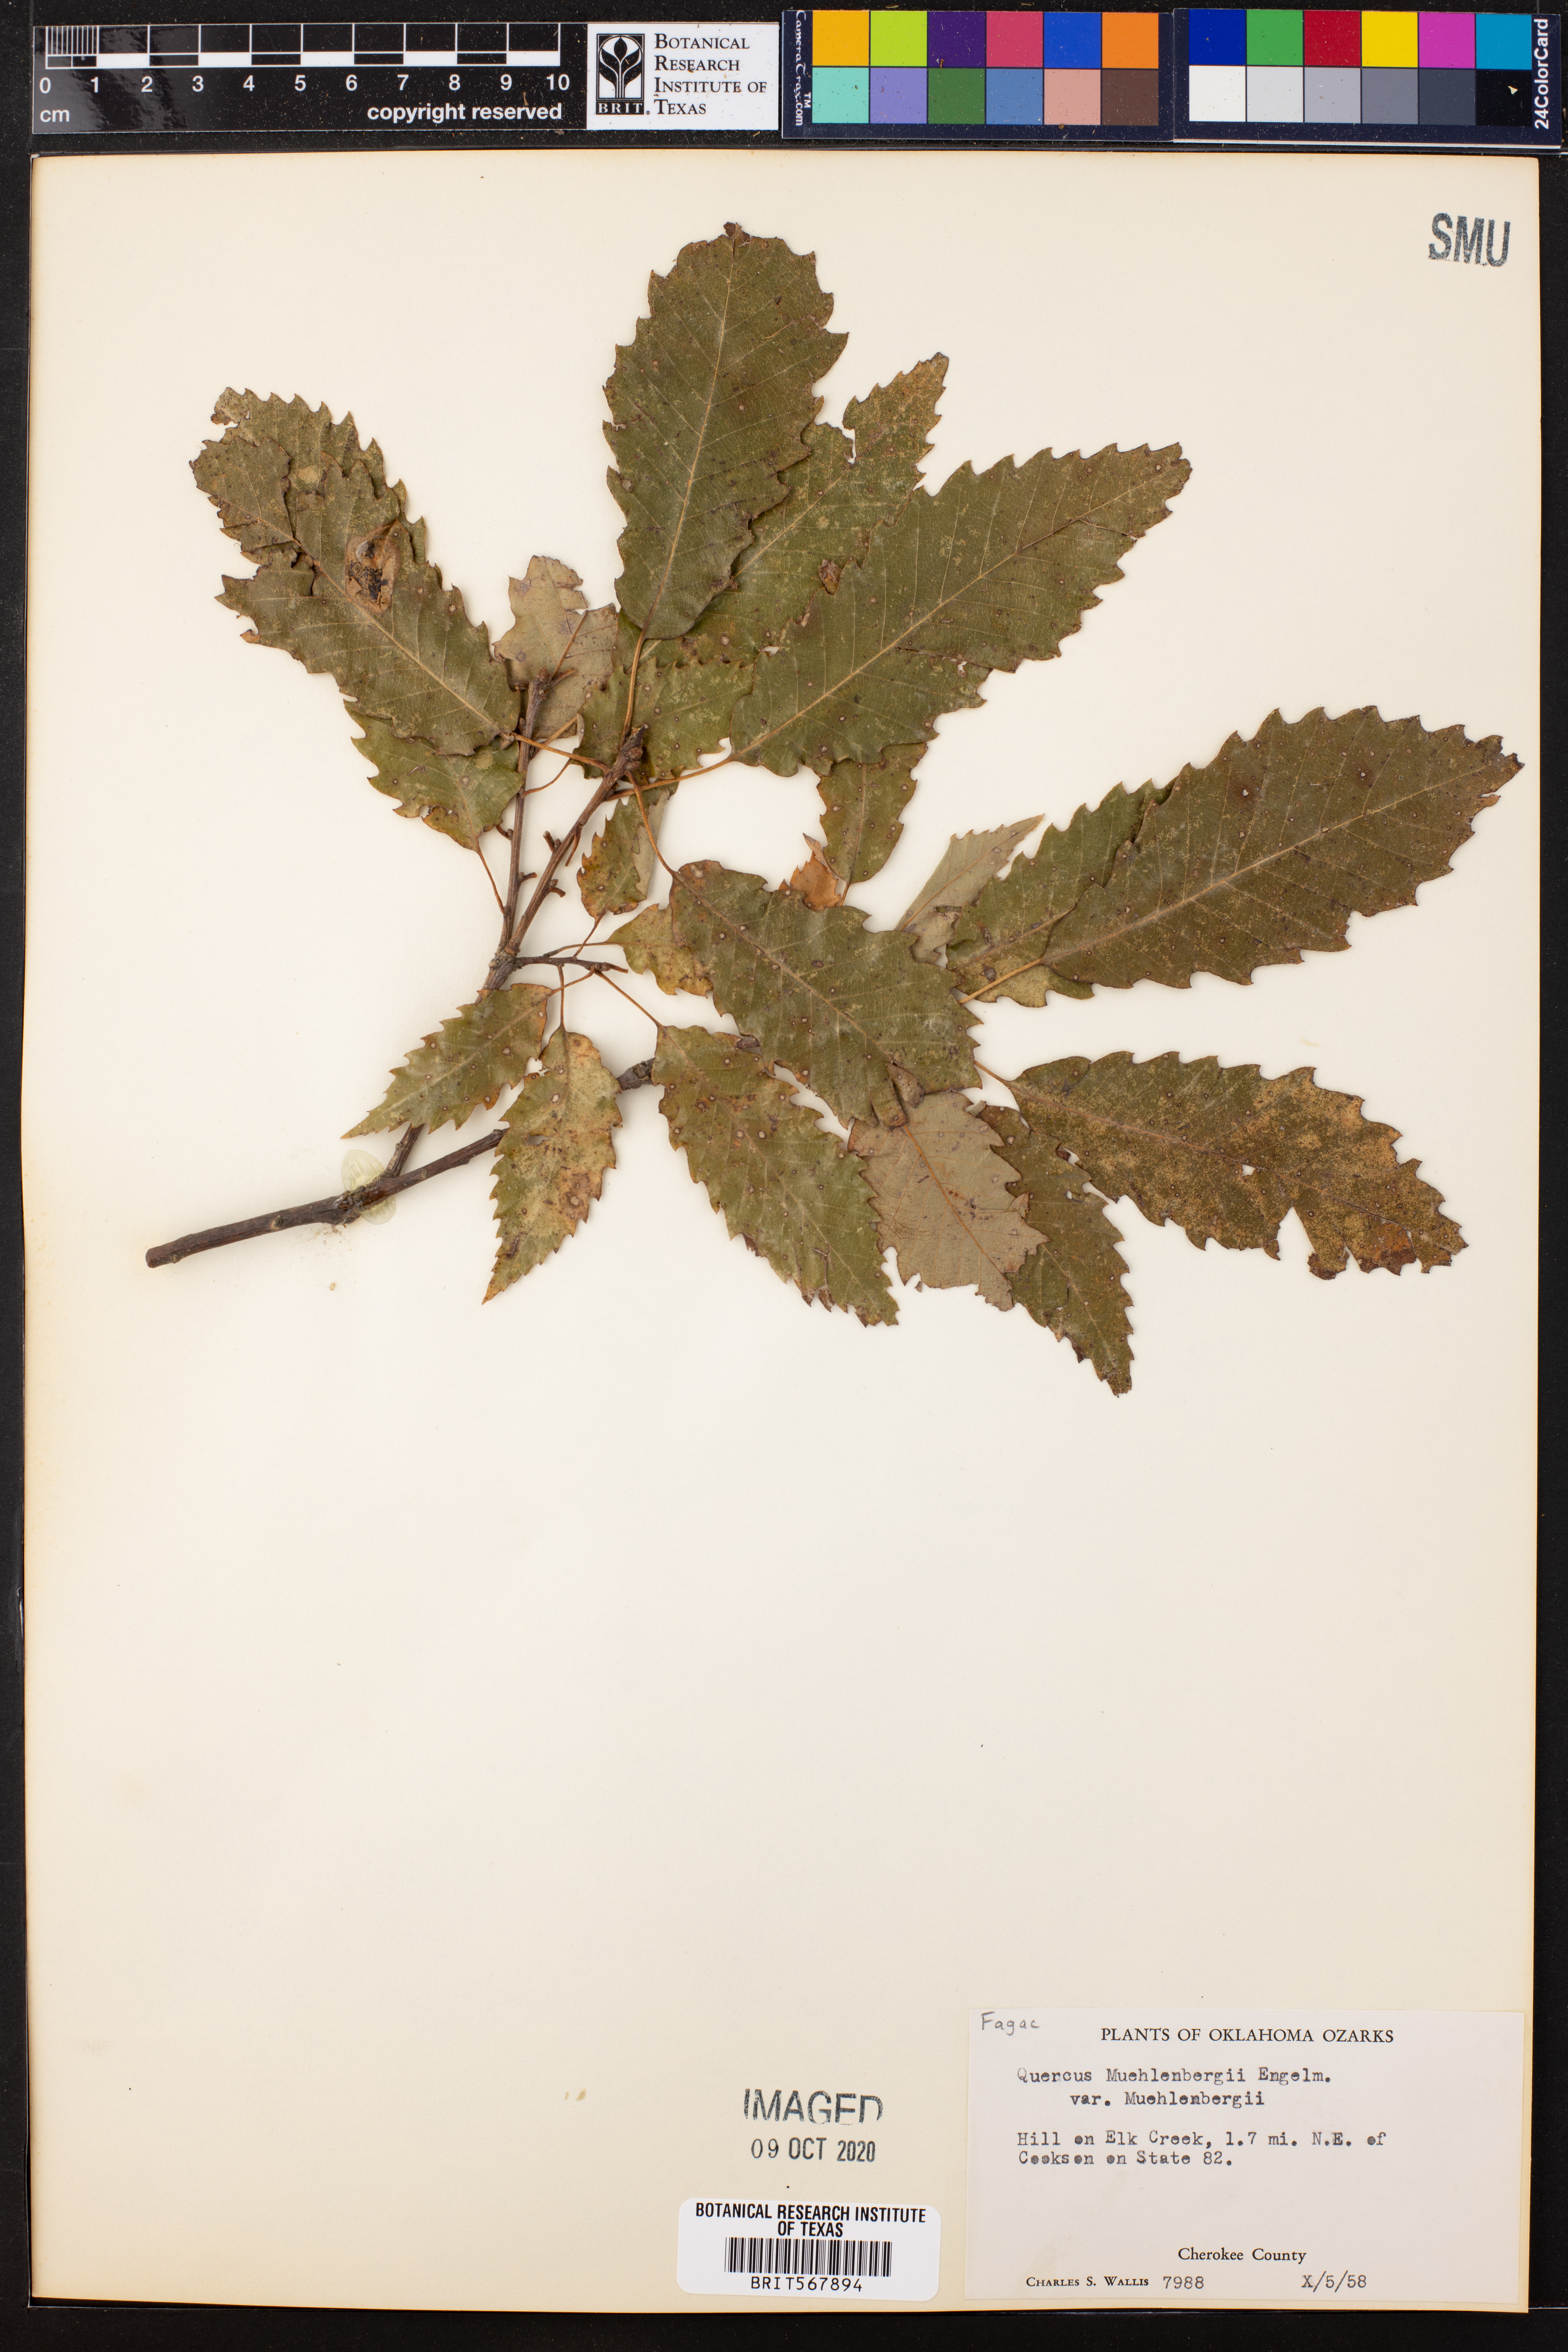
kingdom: Plantae
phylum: Tracheophyta
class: Magnoliopsida
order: Fagales
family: Fagaceae
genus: Quercus
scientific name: Quercus muehlenbergii
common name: Chinkapin oak
